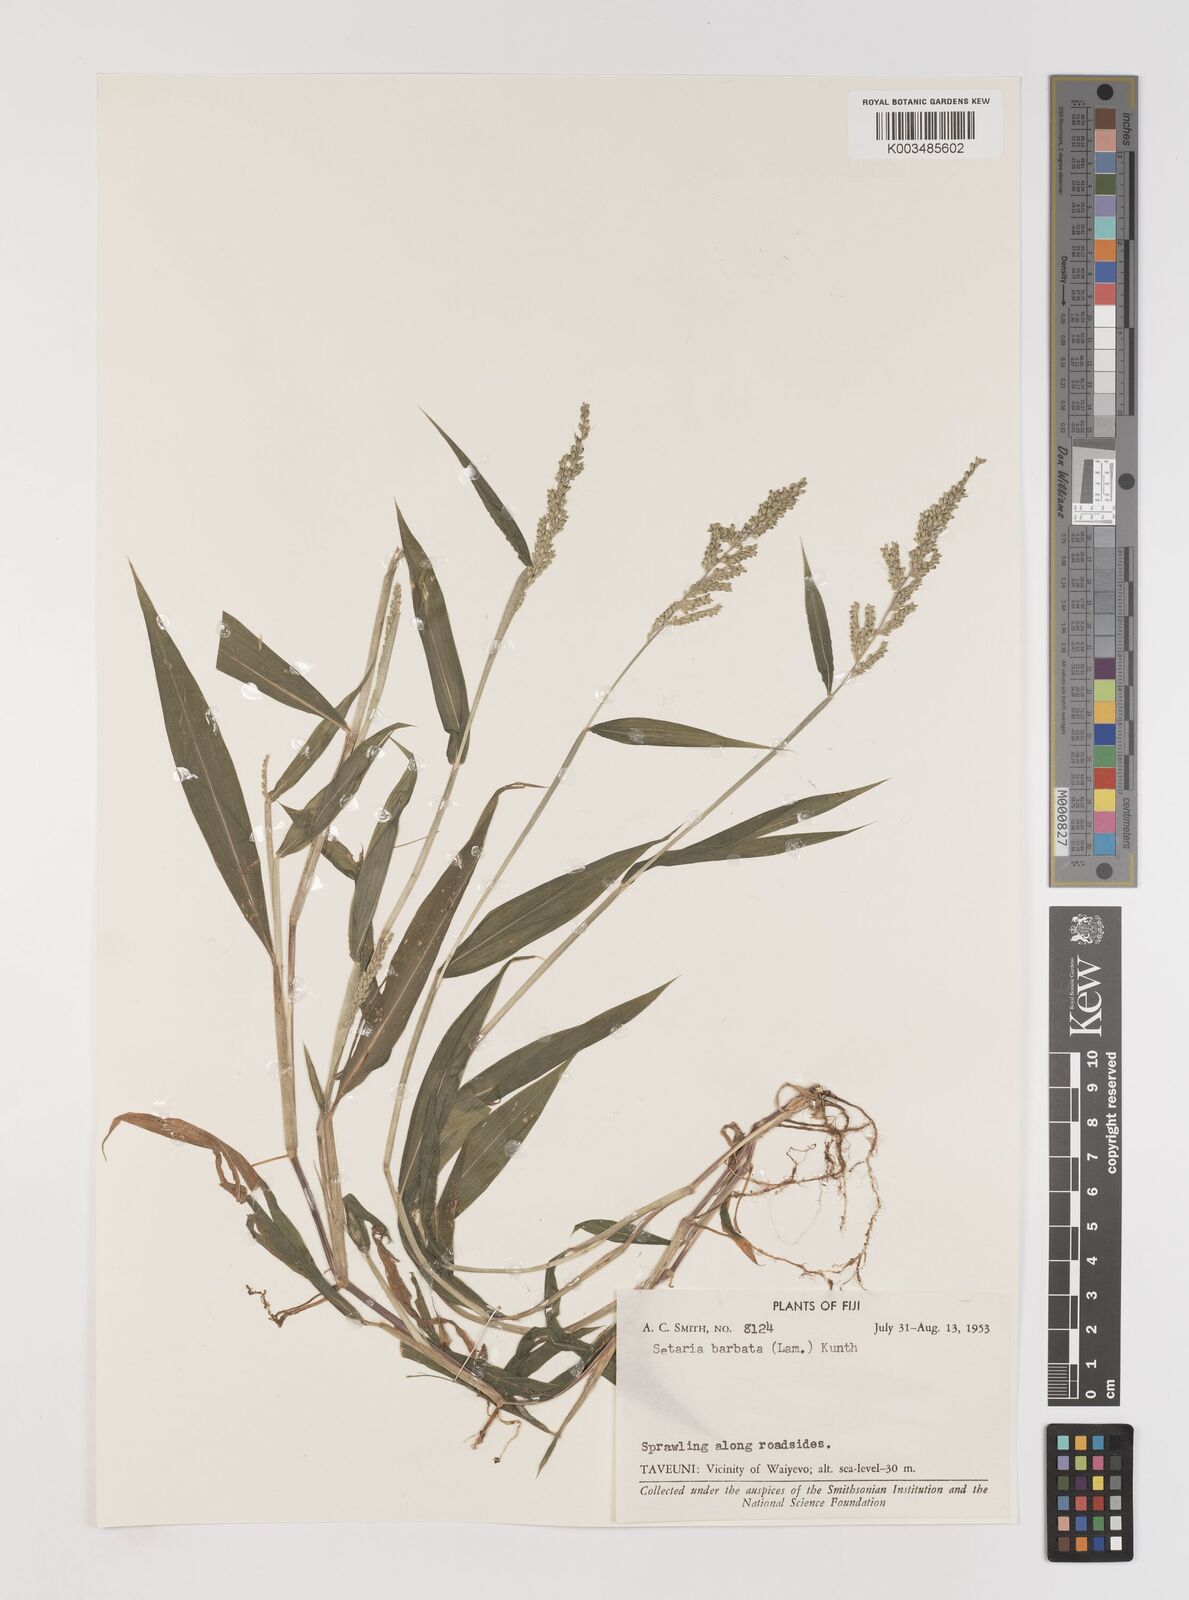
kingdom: Plantae
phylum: Tracheophyta
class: Liliopsida
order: Poales
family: Poaceae
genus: Setaria
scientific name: Setaria barbata
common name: East indian bristlegrass
